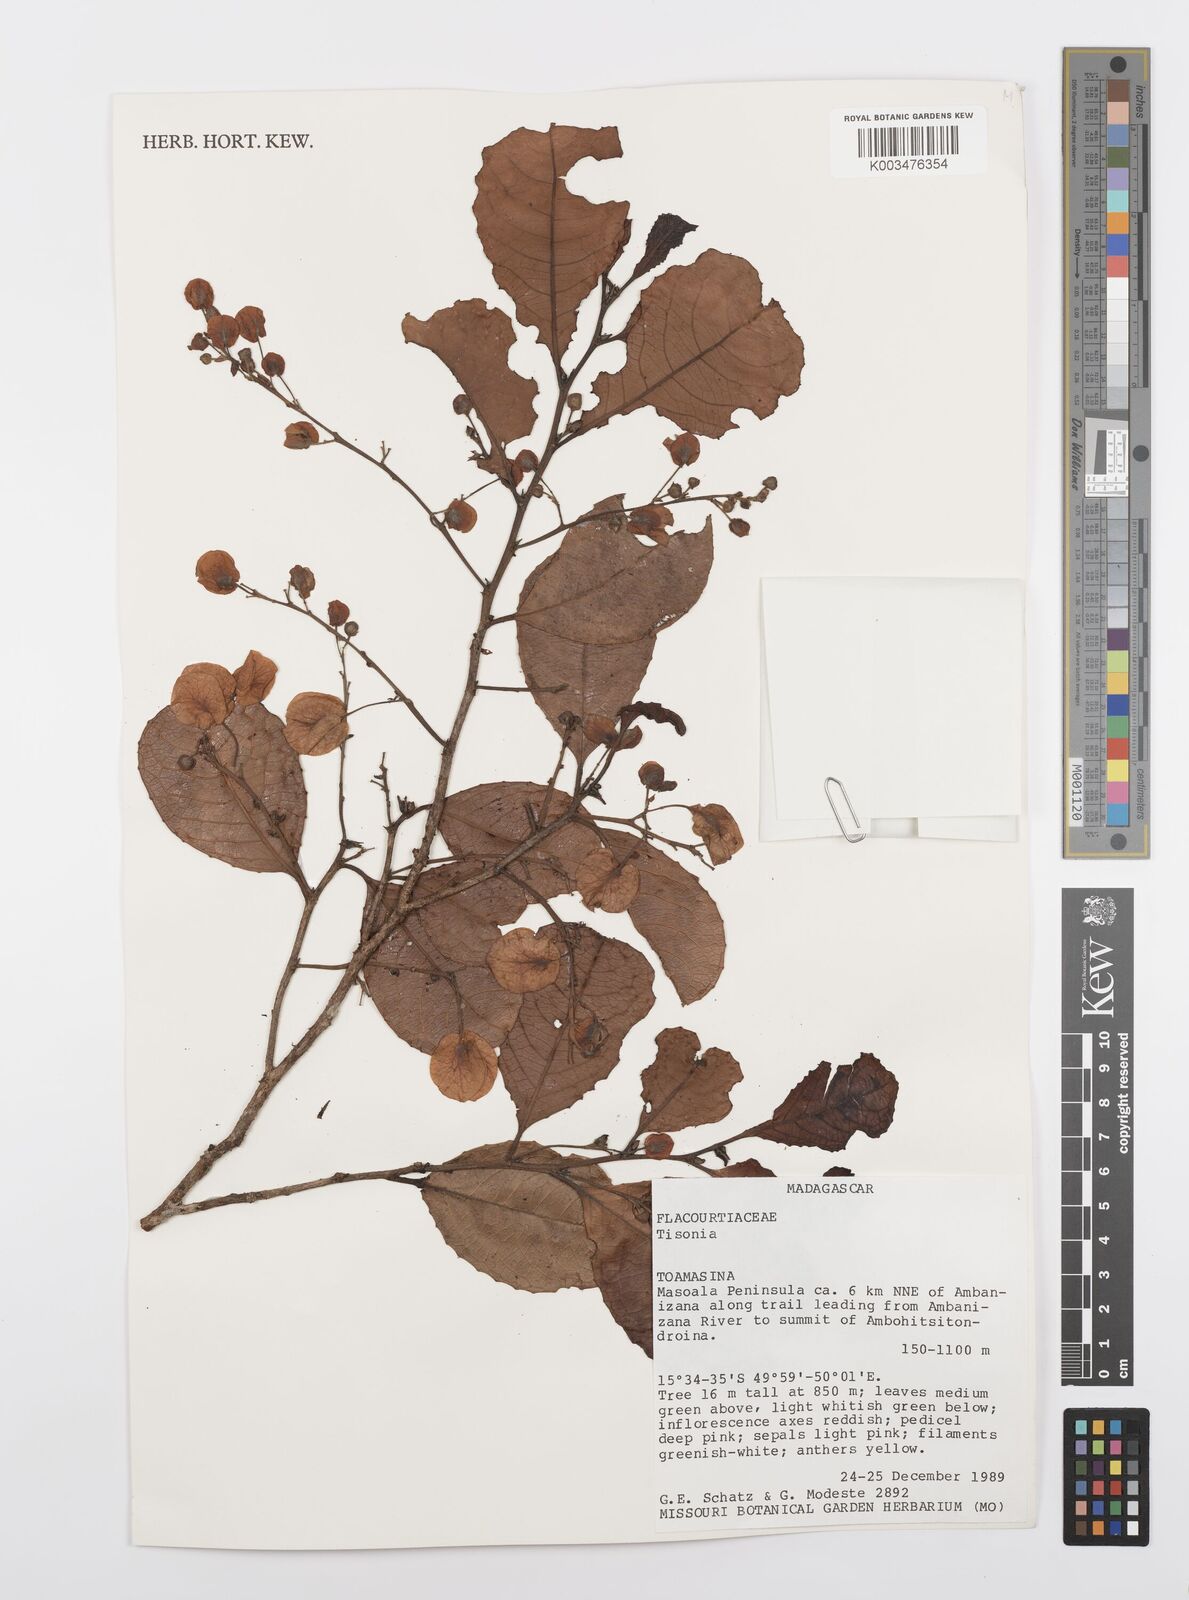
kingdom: Plantae
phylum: Tracheophyta
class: Magnoliopsida
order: Malpighiales
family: Salicaceae
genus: Tisonia
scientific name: Tisonia
